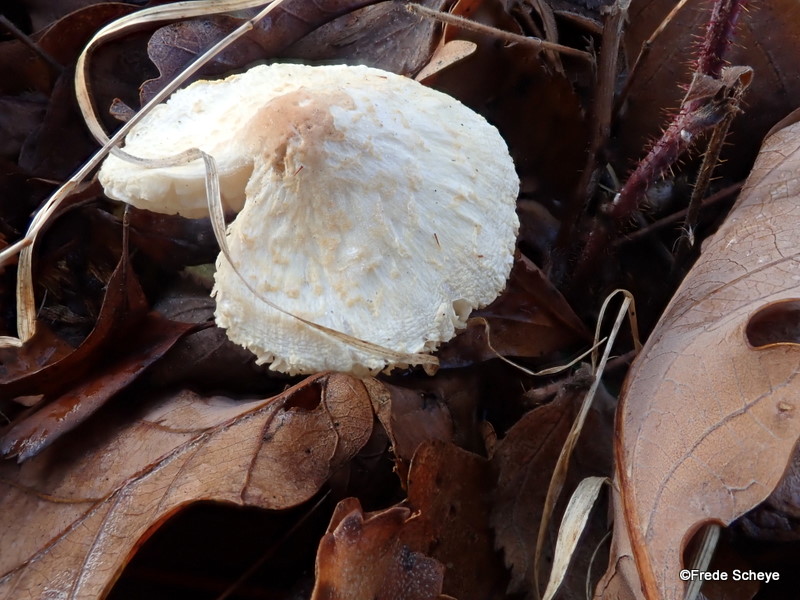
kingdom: Fungi
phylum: Basidiomycota
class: Agaricomycetes
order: Agaricales
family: Agaricaceae
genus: Lepiota
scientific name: Lepiota cristata
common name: stinkende parasolhat
